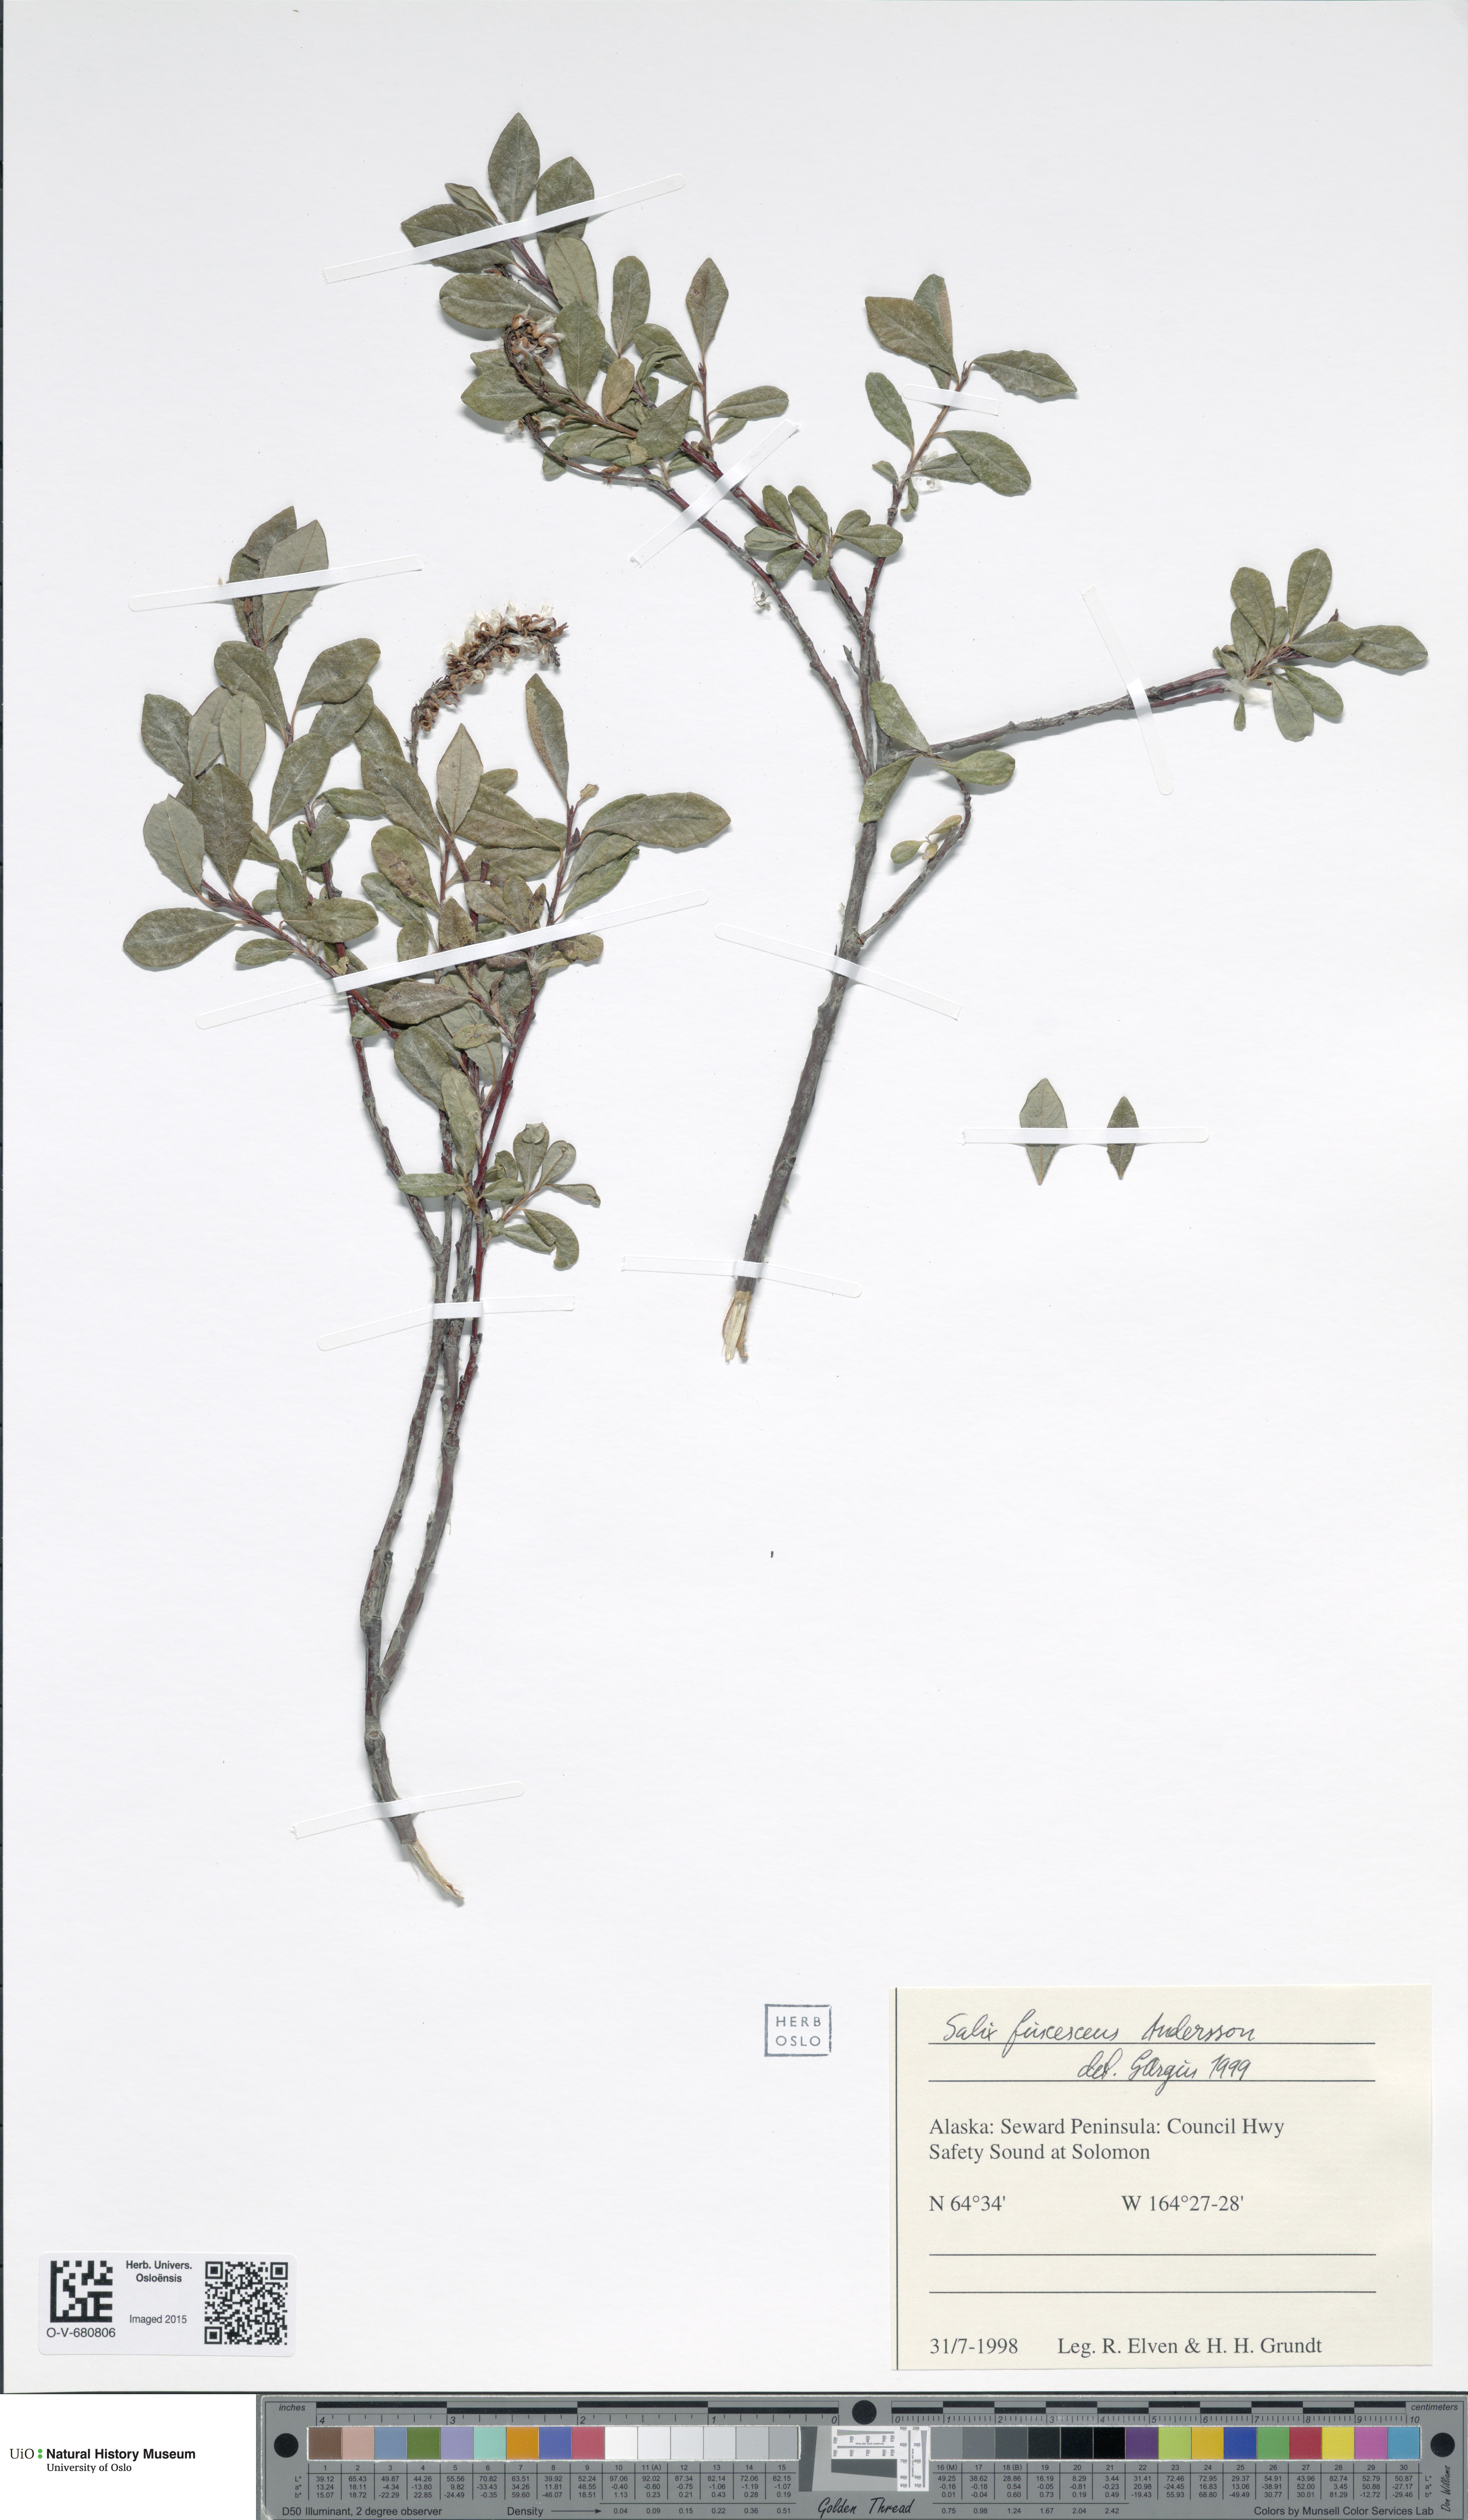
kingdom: Plantae
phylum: Tracheophyta
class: Magnoliopsida
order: Malpighiales
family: Salicaceae
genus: Salix
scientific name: Salix fuscescens
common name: Brownish willow
